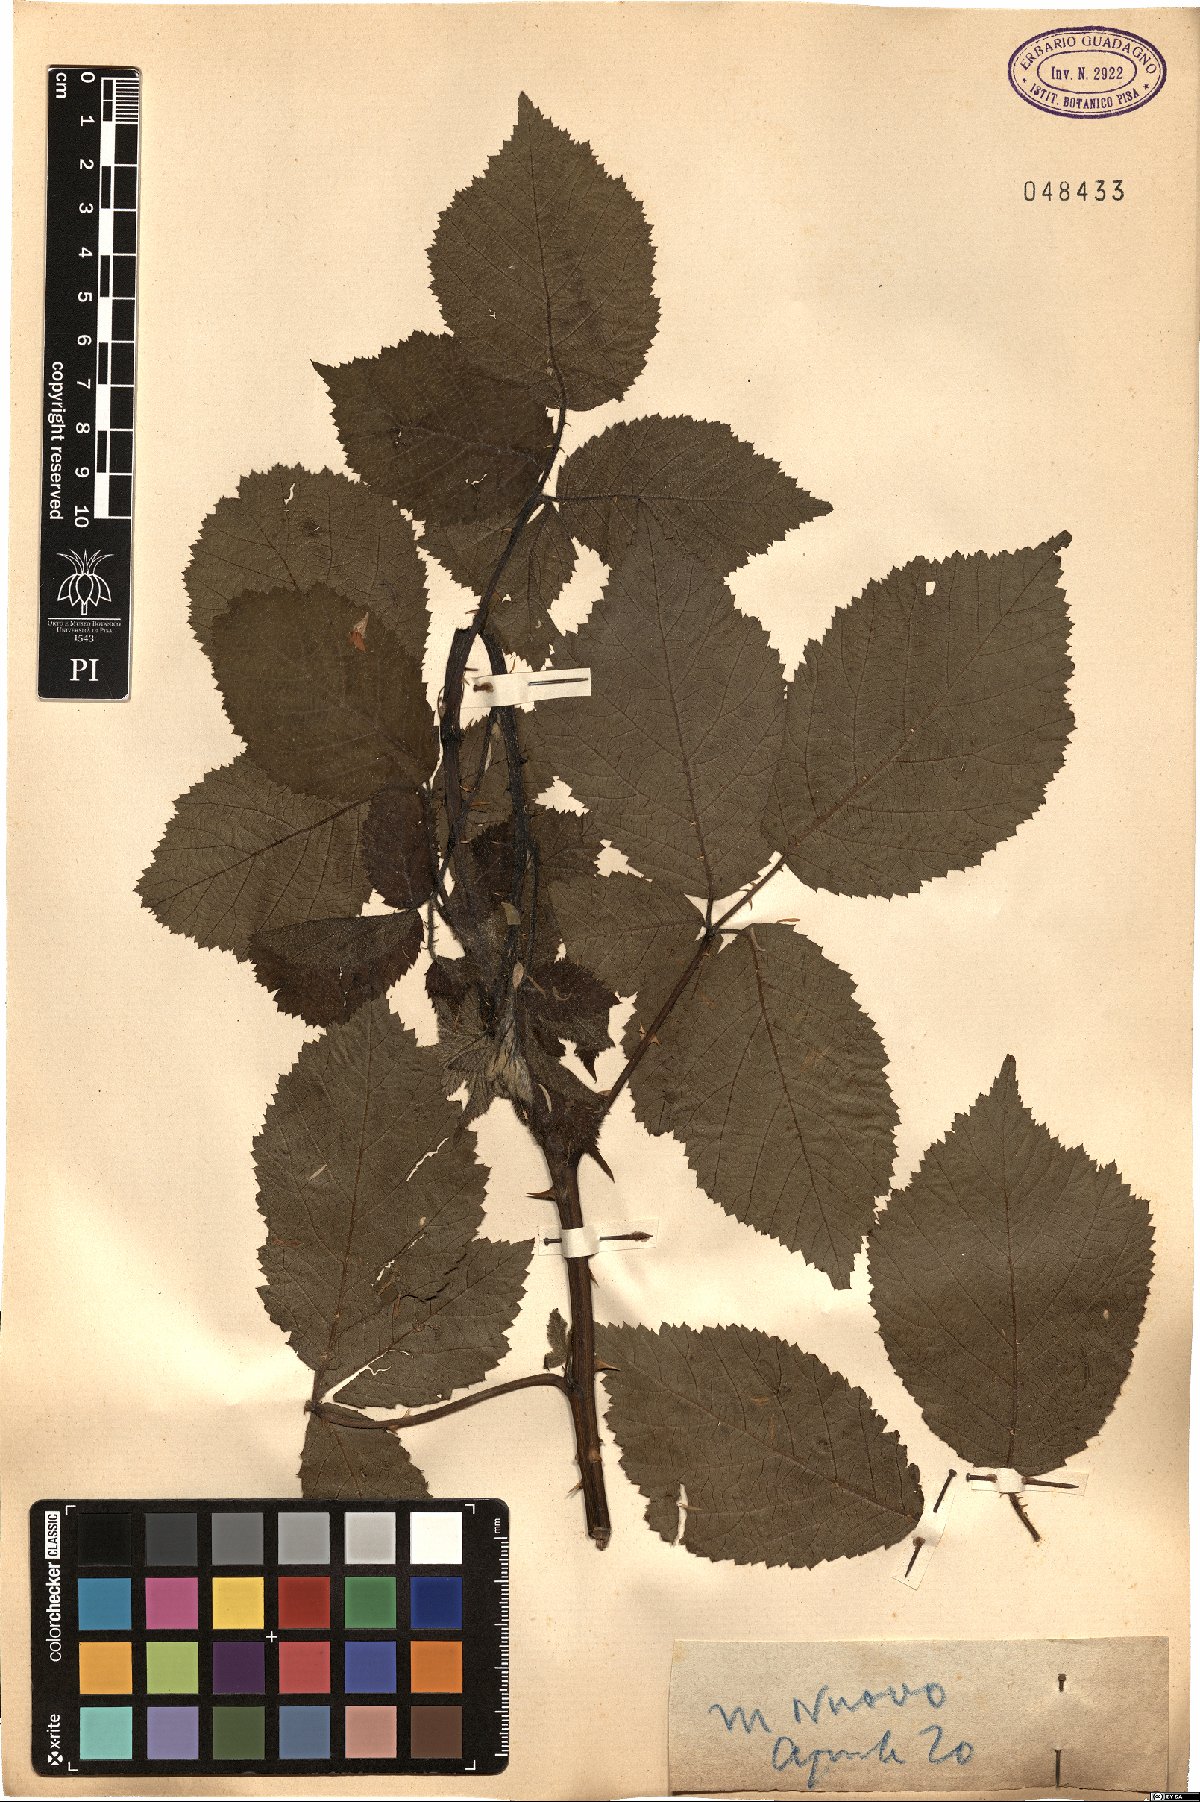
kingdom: Plantae
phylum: Tracheophyta
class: Magnoliopsida
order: Rosales
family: Rosaceae
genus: Rubus
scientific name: Rubus
